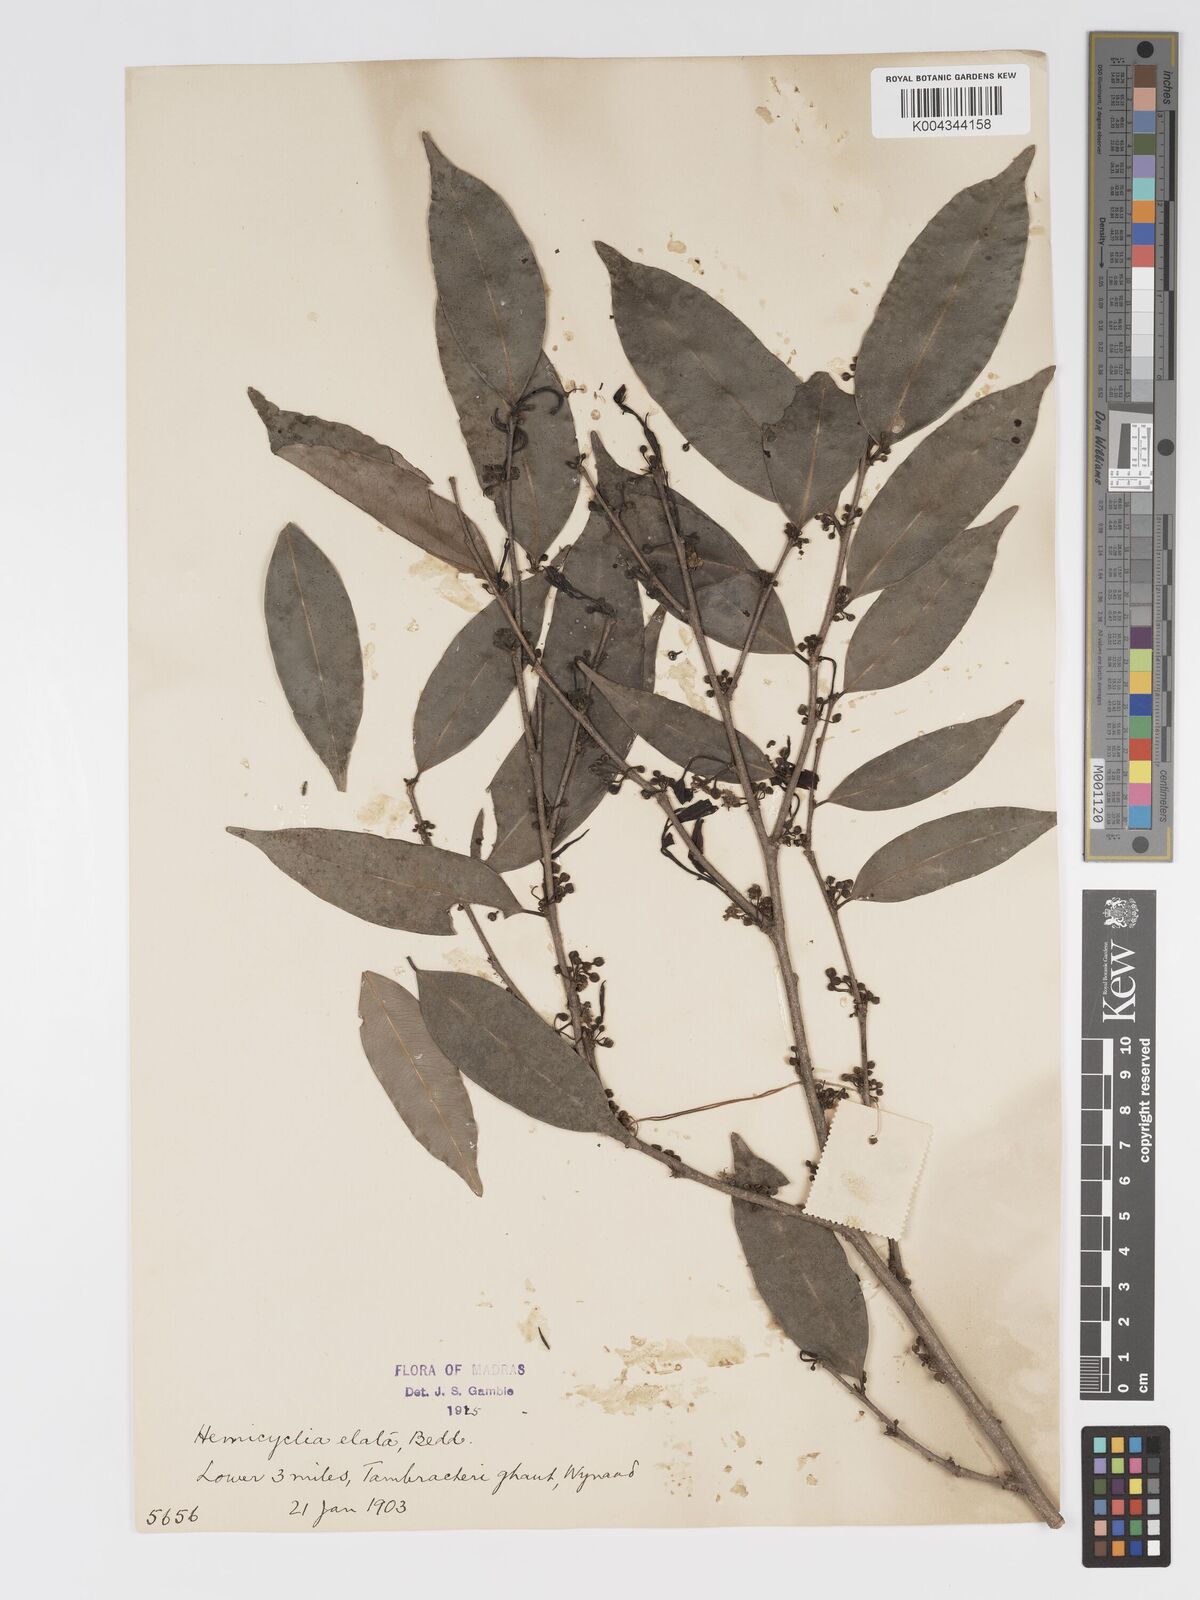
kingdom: Plantae
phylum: Tracheophyta
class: Magnoliopsida
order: Malpighiales
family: Putranjivaceae
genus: Drypetes
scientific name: Drypetes venusta
